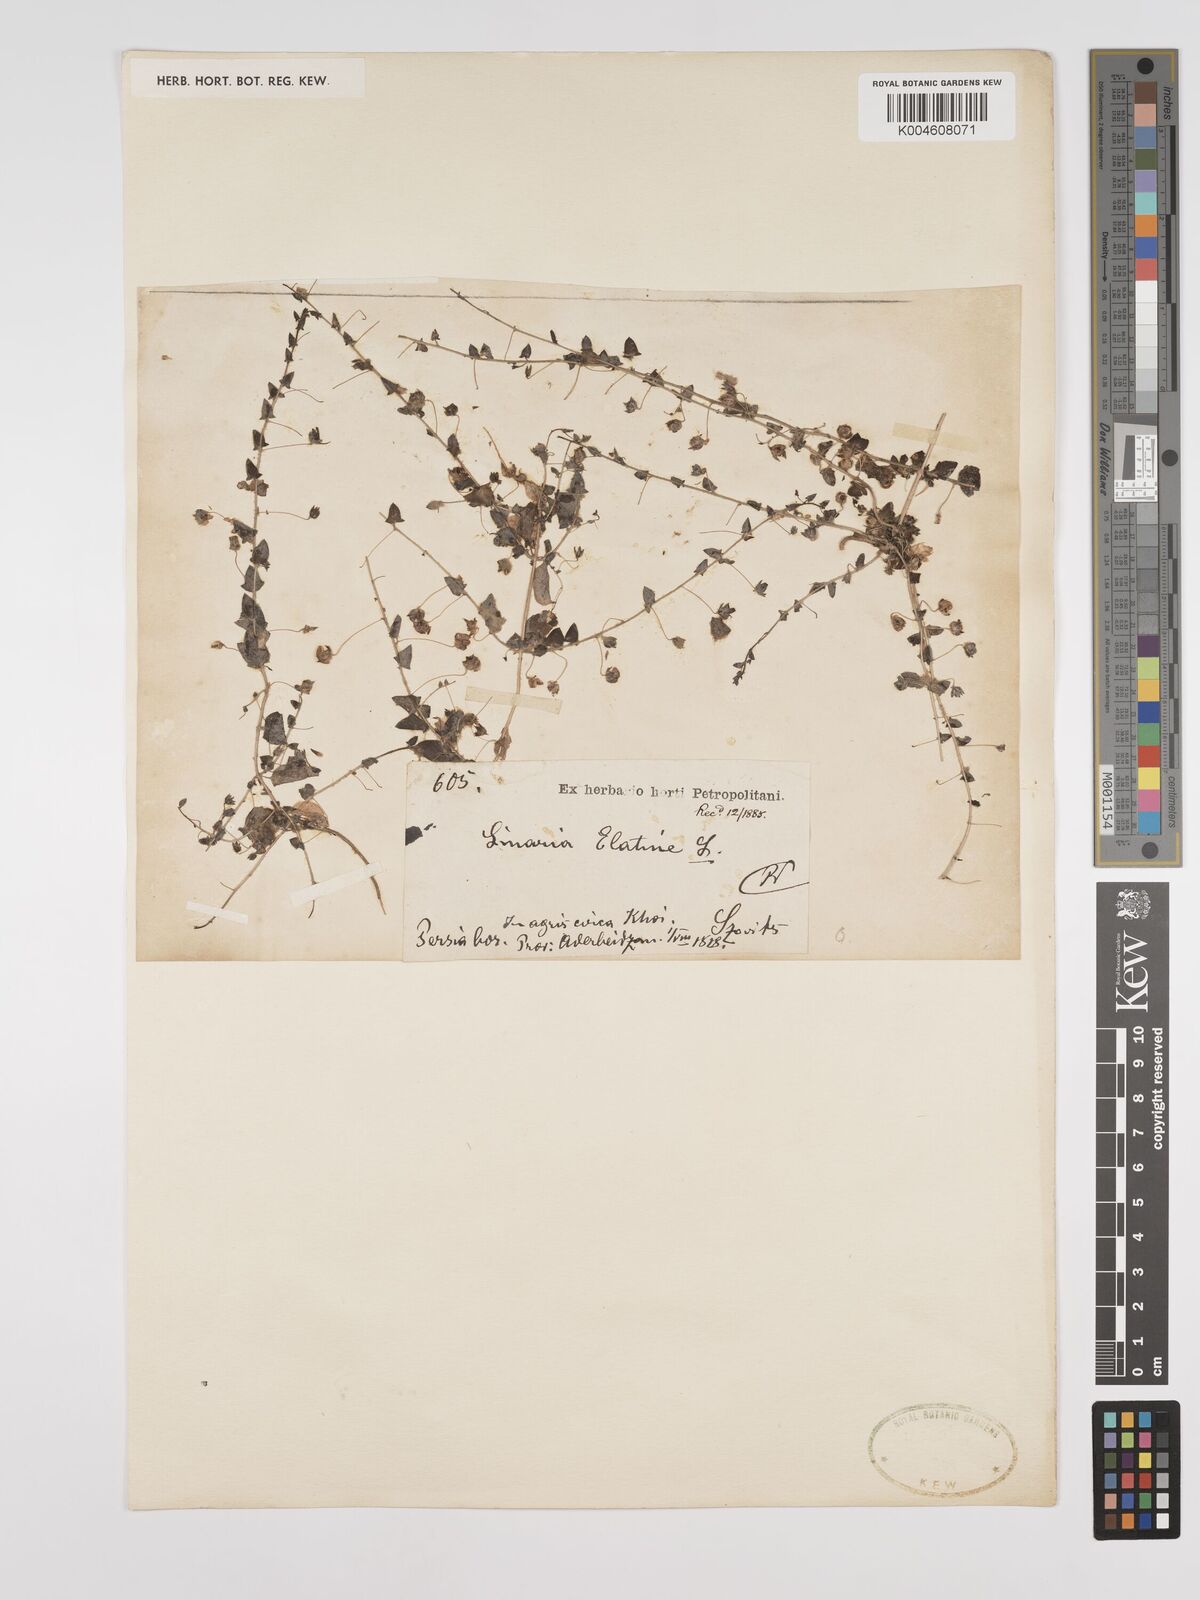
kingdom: Plantae
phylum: Tracheophyta
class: Magnoliopsida
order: Lamiales
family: Plantaginaceae
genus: Kickxia
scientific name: Kickxia elatine
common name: Sharp-leaved fluellen
